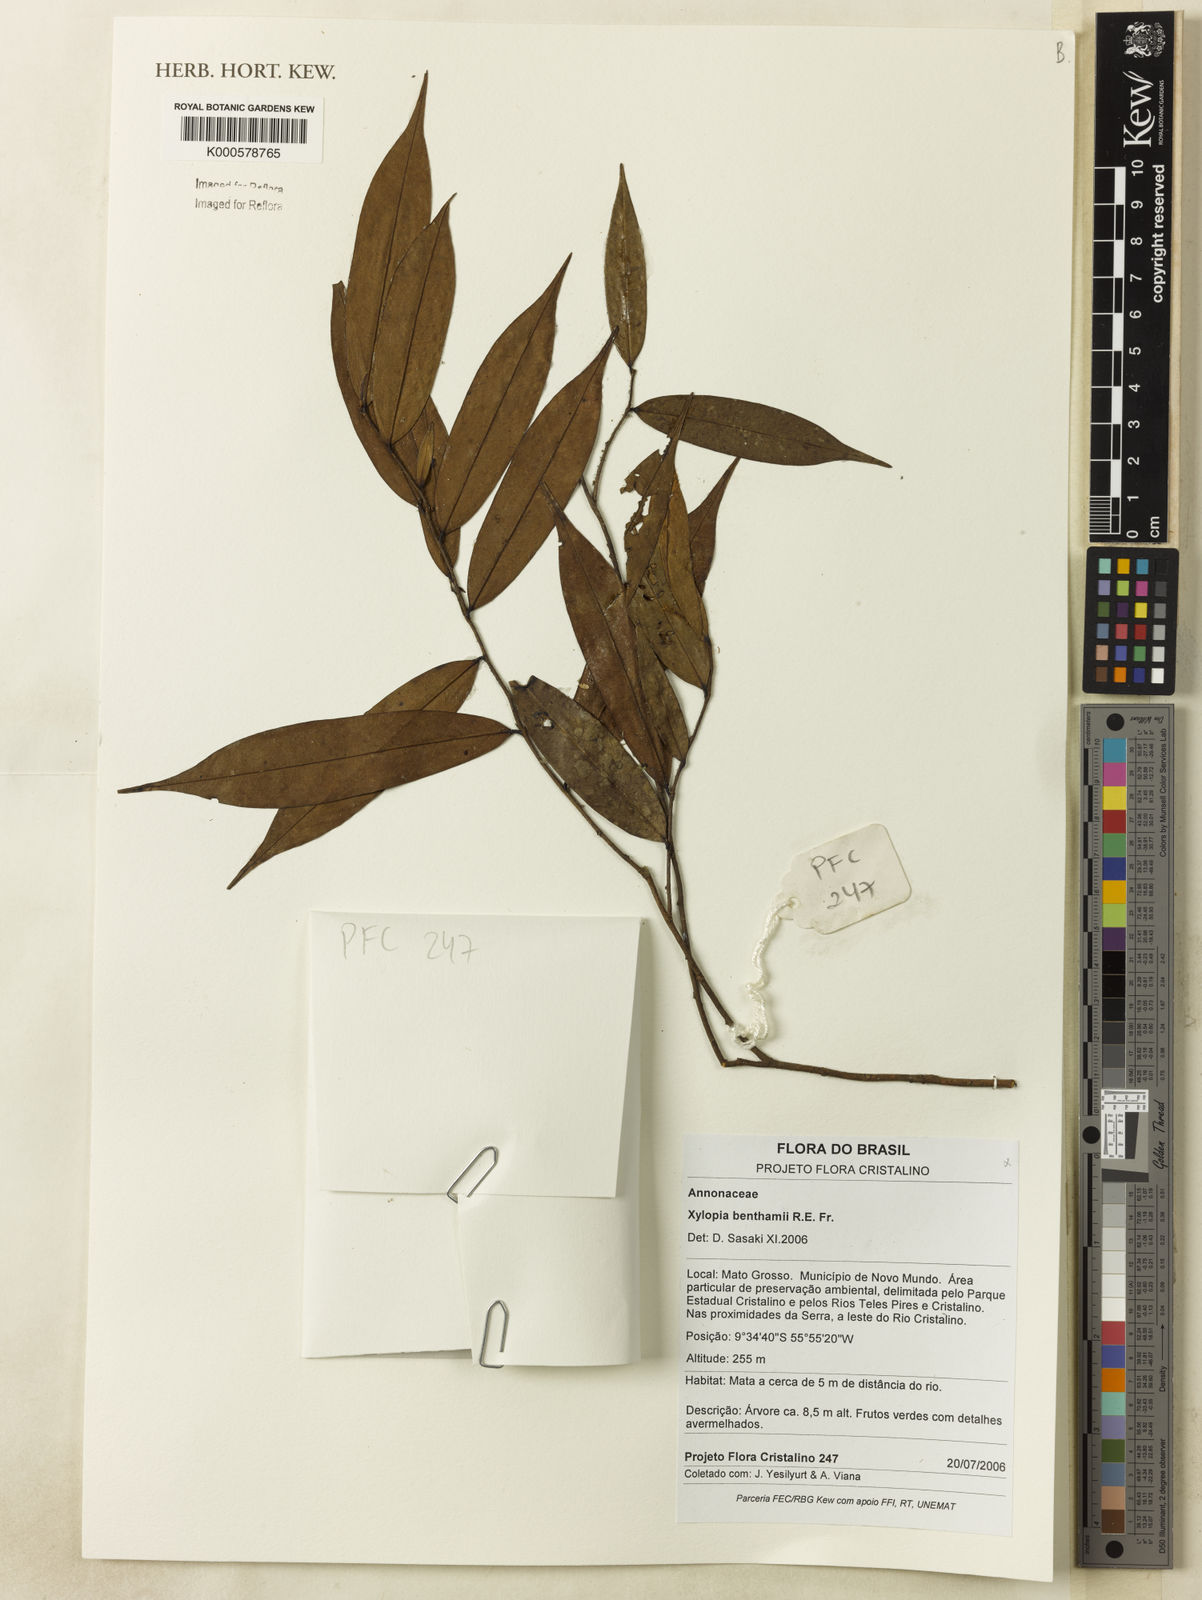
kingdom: Plantae
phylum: Tracheophyta
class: Magnoliopsida
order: Magnoliales
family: Annonaceae
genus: Xylopia
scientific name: Xylopia benthamii
